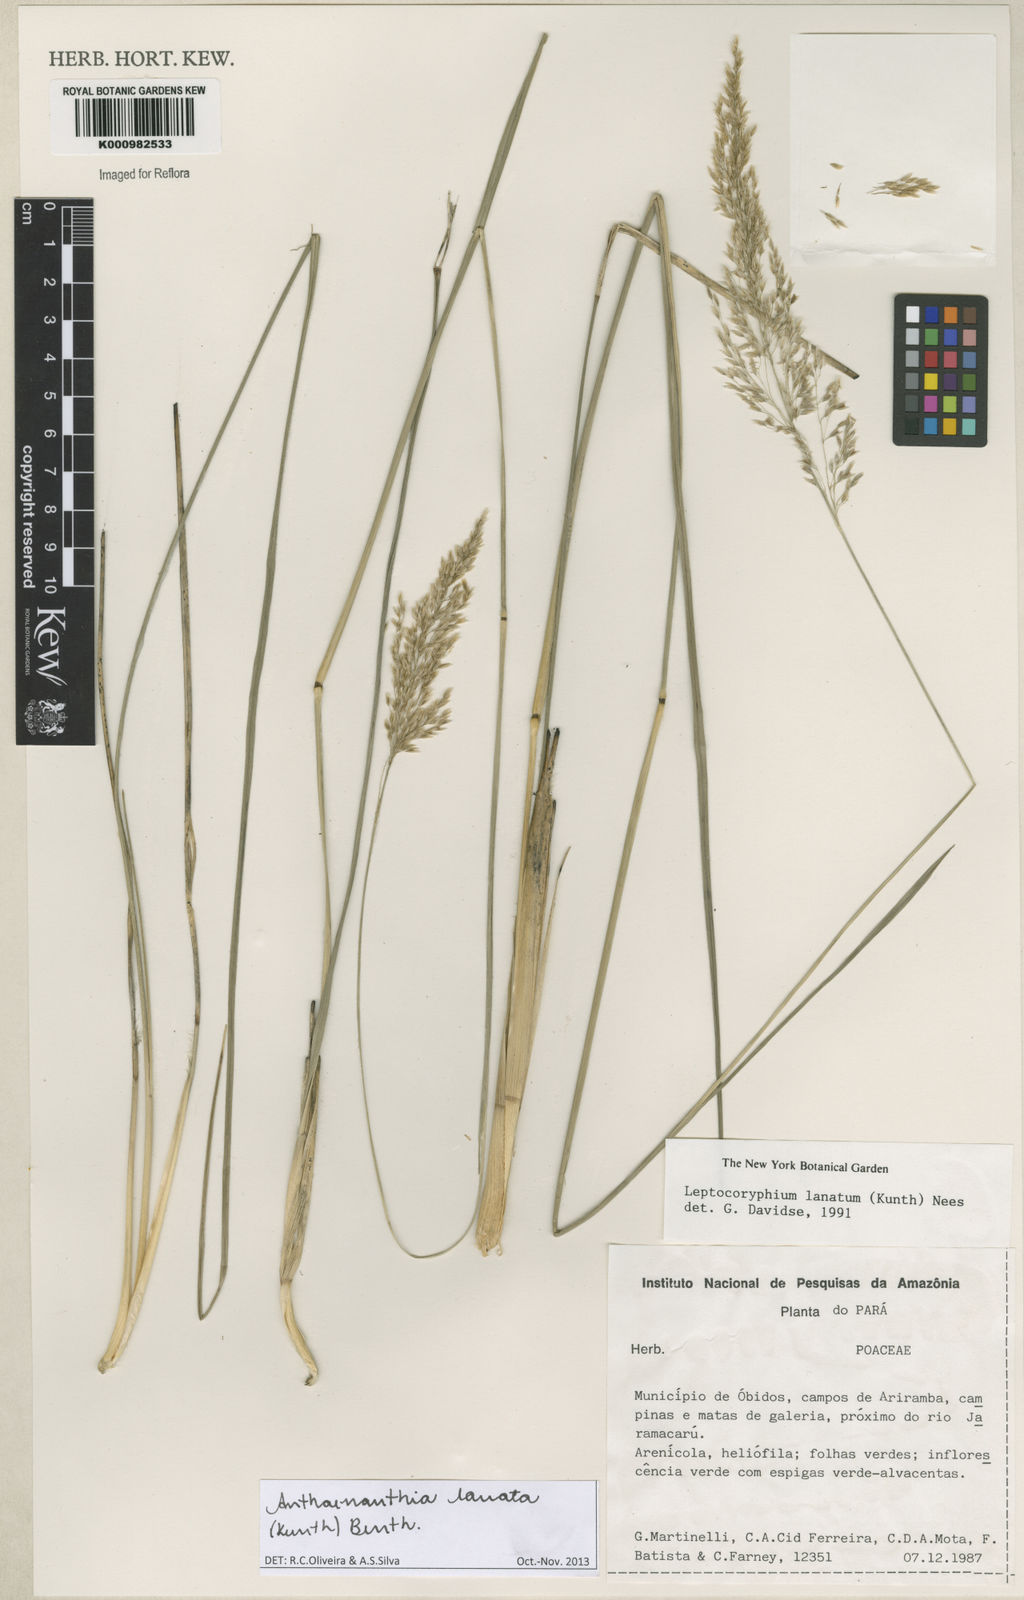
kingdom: Plantae
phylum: Tracheophyta
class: Liliopsida
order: Poales
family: Poaceae
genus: Anthenantia
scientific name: Anthenantia lanata
